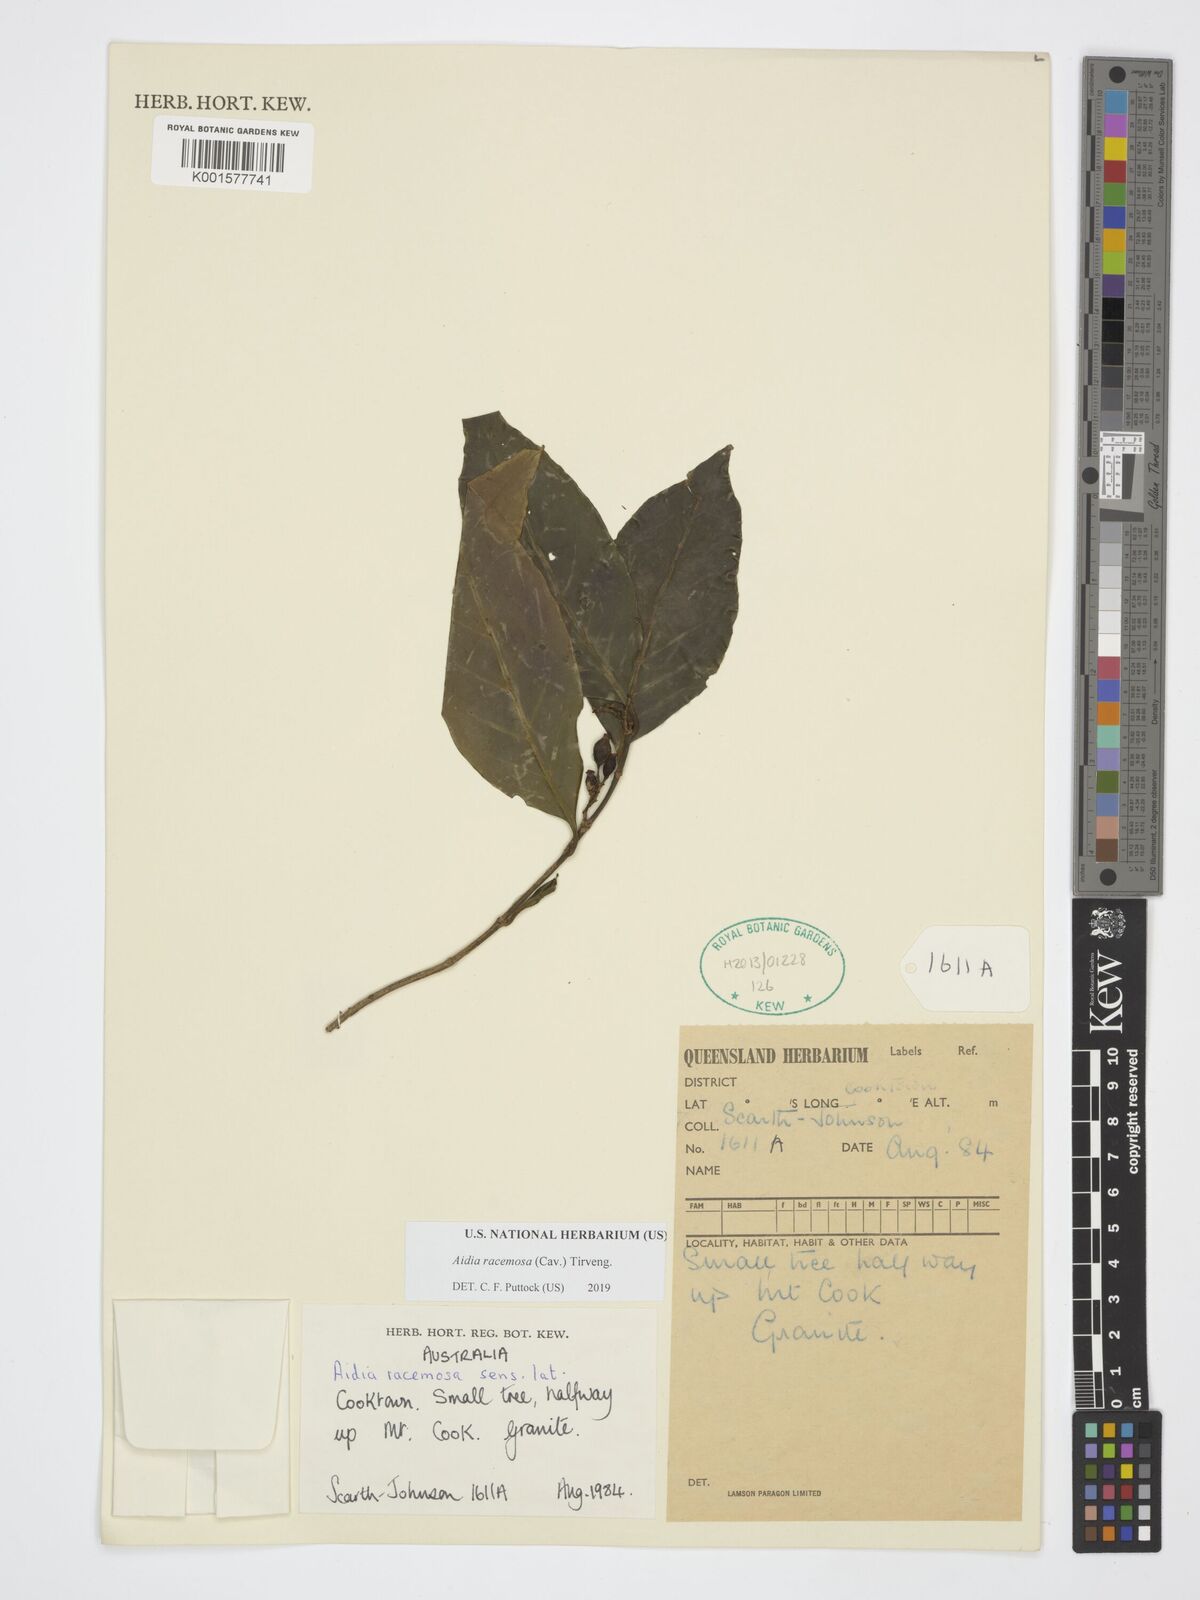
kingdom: Plantae
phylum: Tracheophyta
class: Magnoliopsida
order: Gentianales
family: Rubiaceae
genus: Aidia
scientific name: Aidia racemosa
